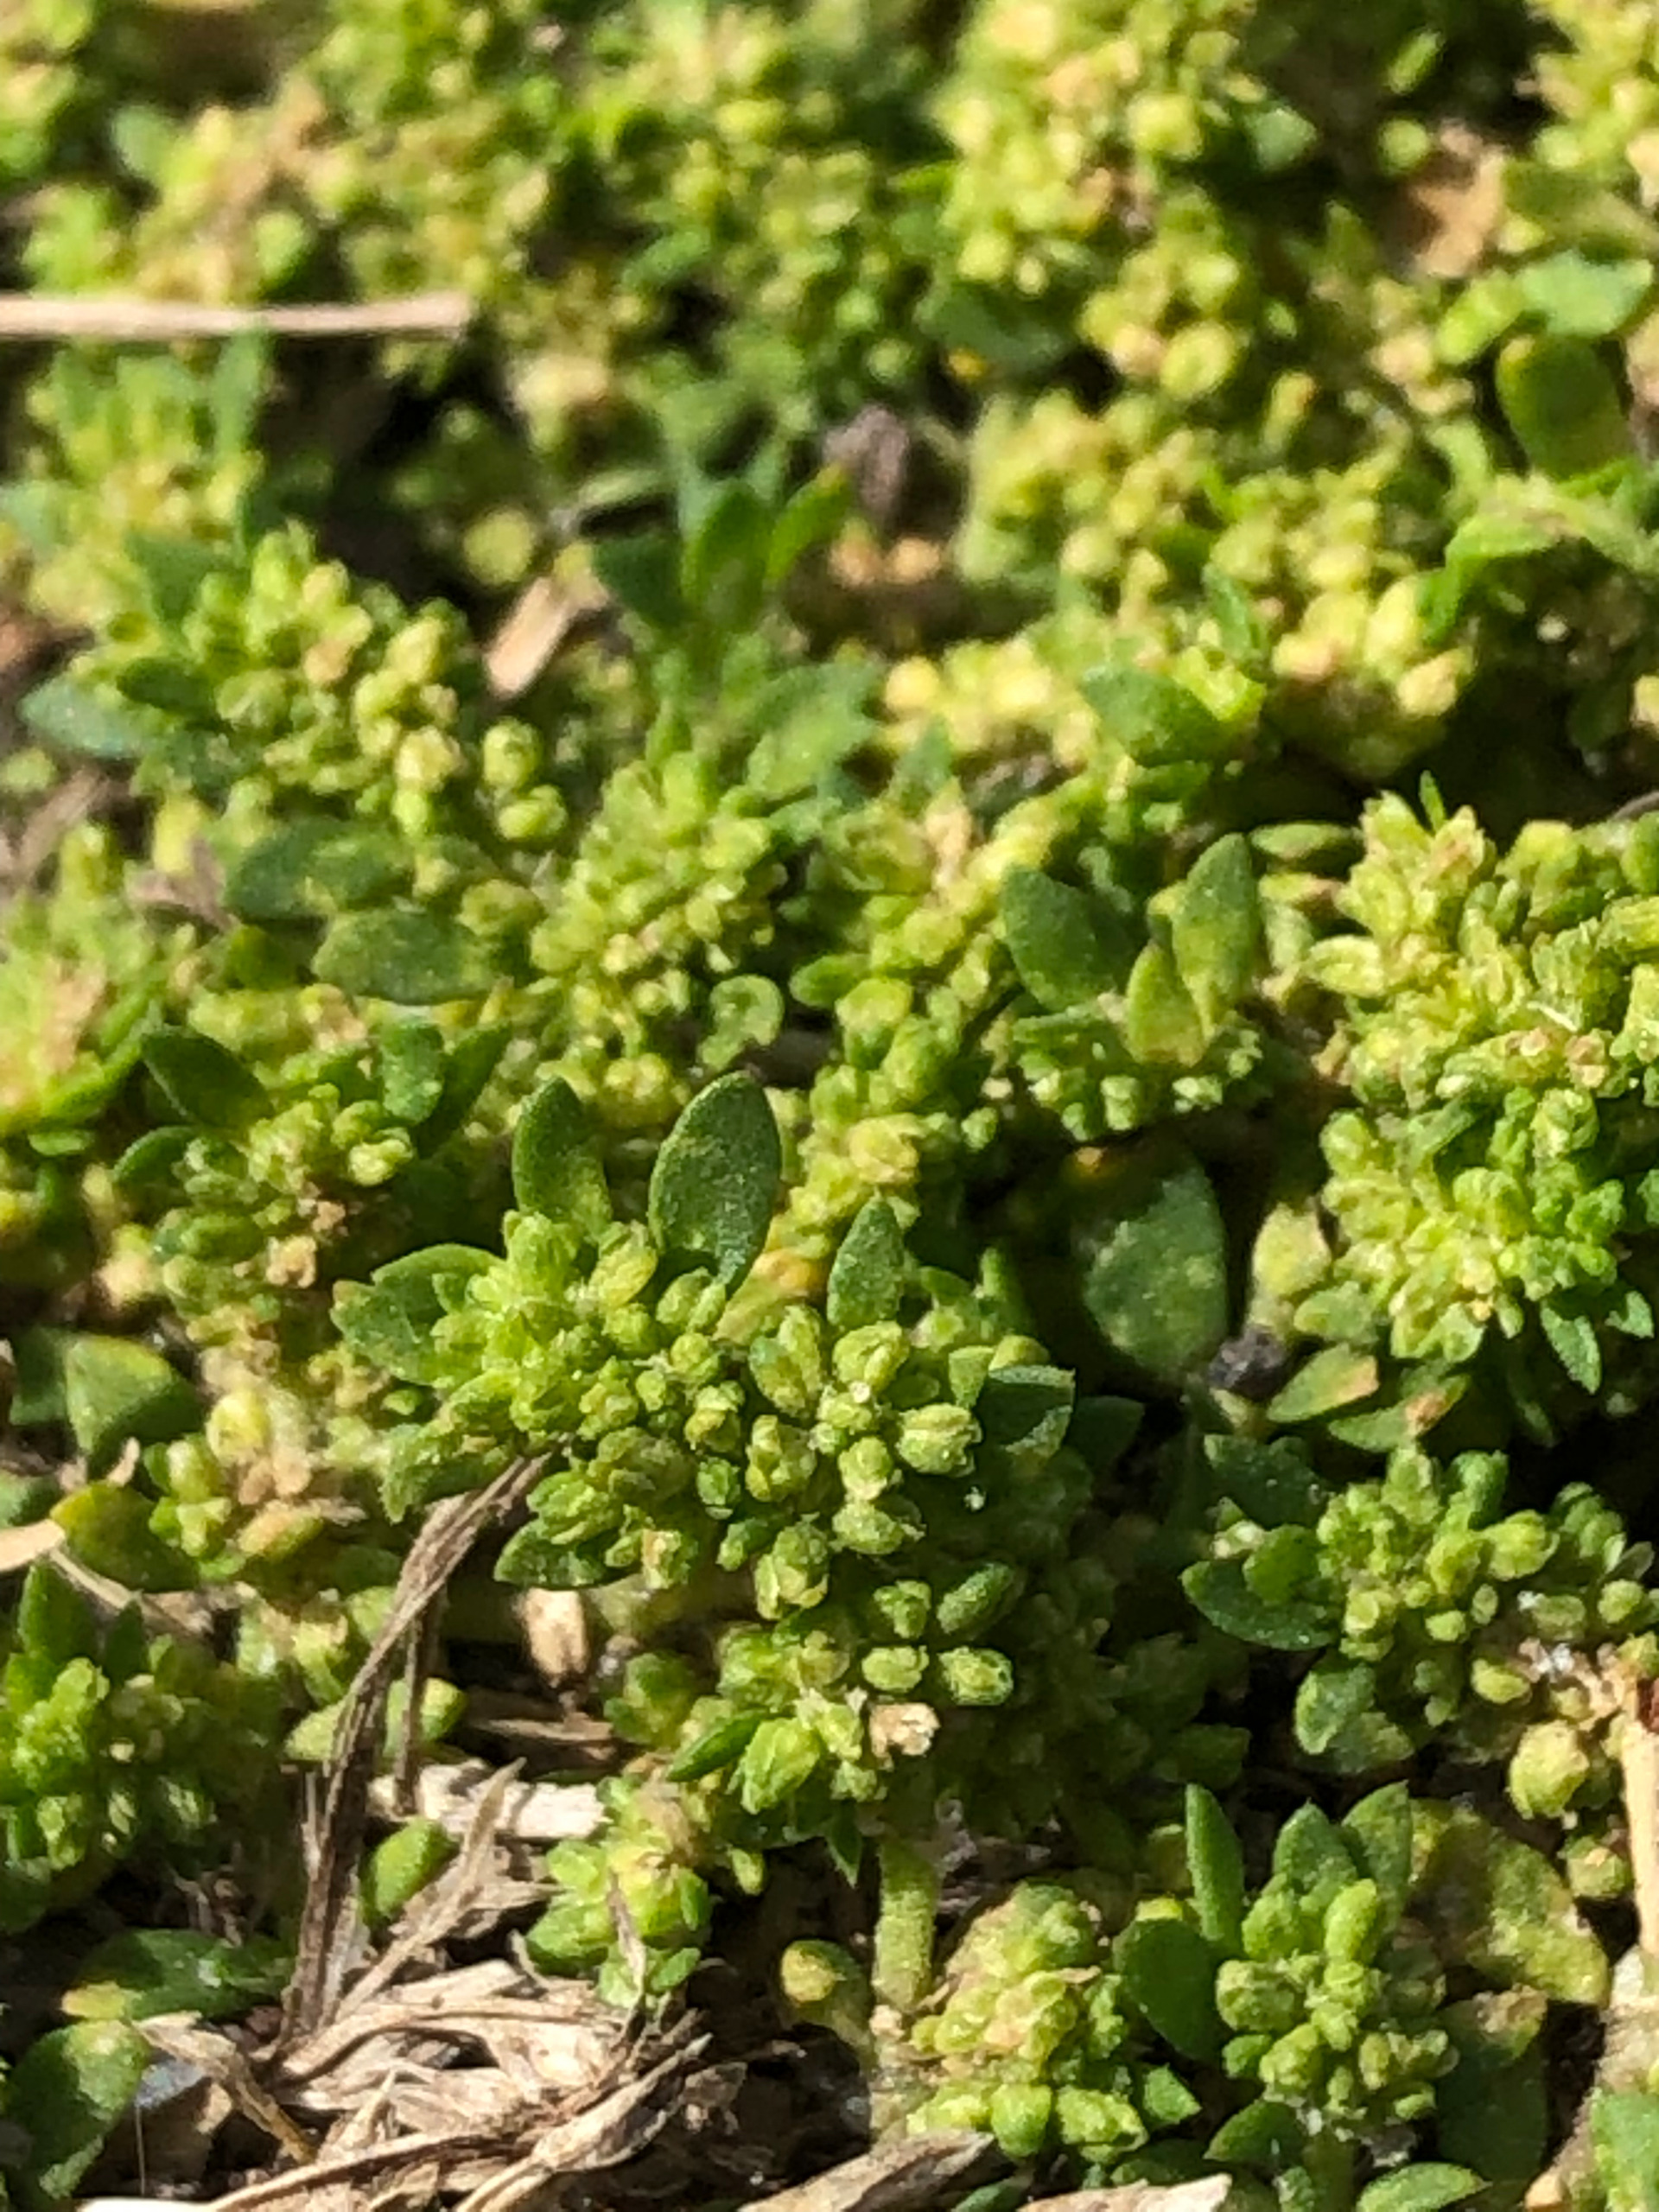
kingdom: Plantae
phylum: Tracheophyta
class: Magnoliopsida
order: Caryophyllales
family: Caryophyllaceae
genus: Herniaria
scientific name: Herniaria glabra
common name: Brudurt
